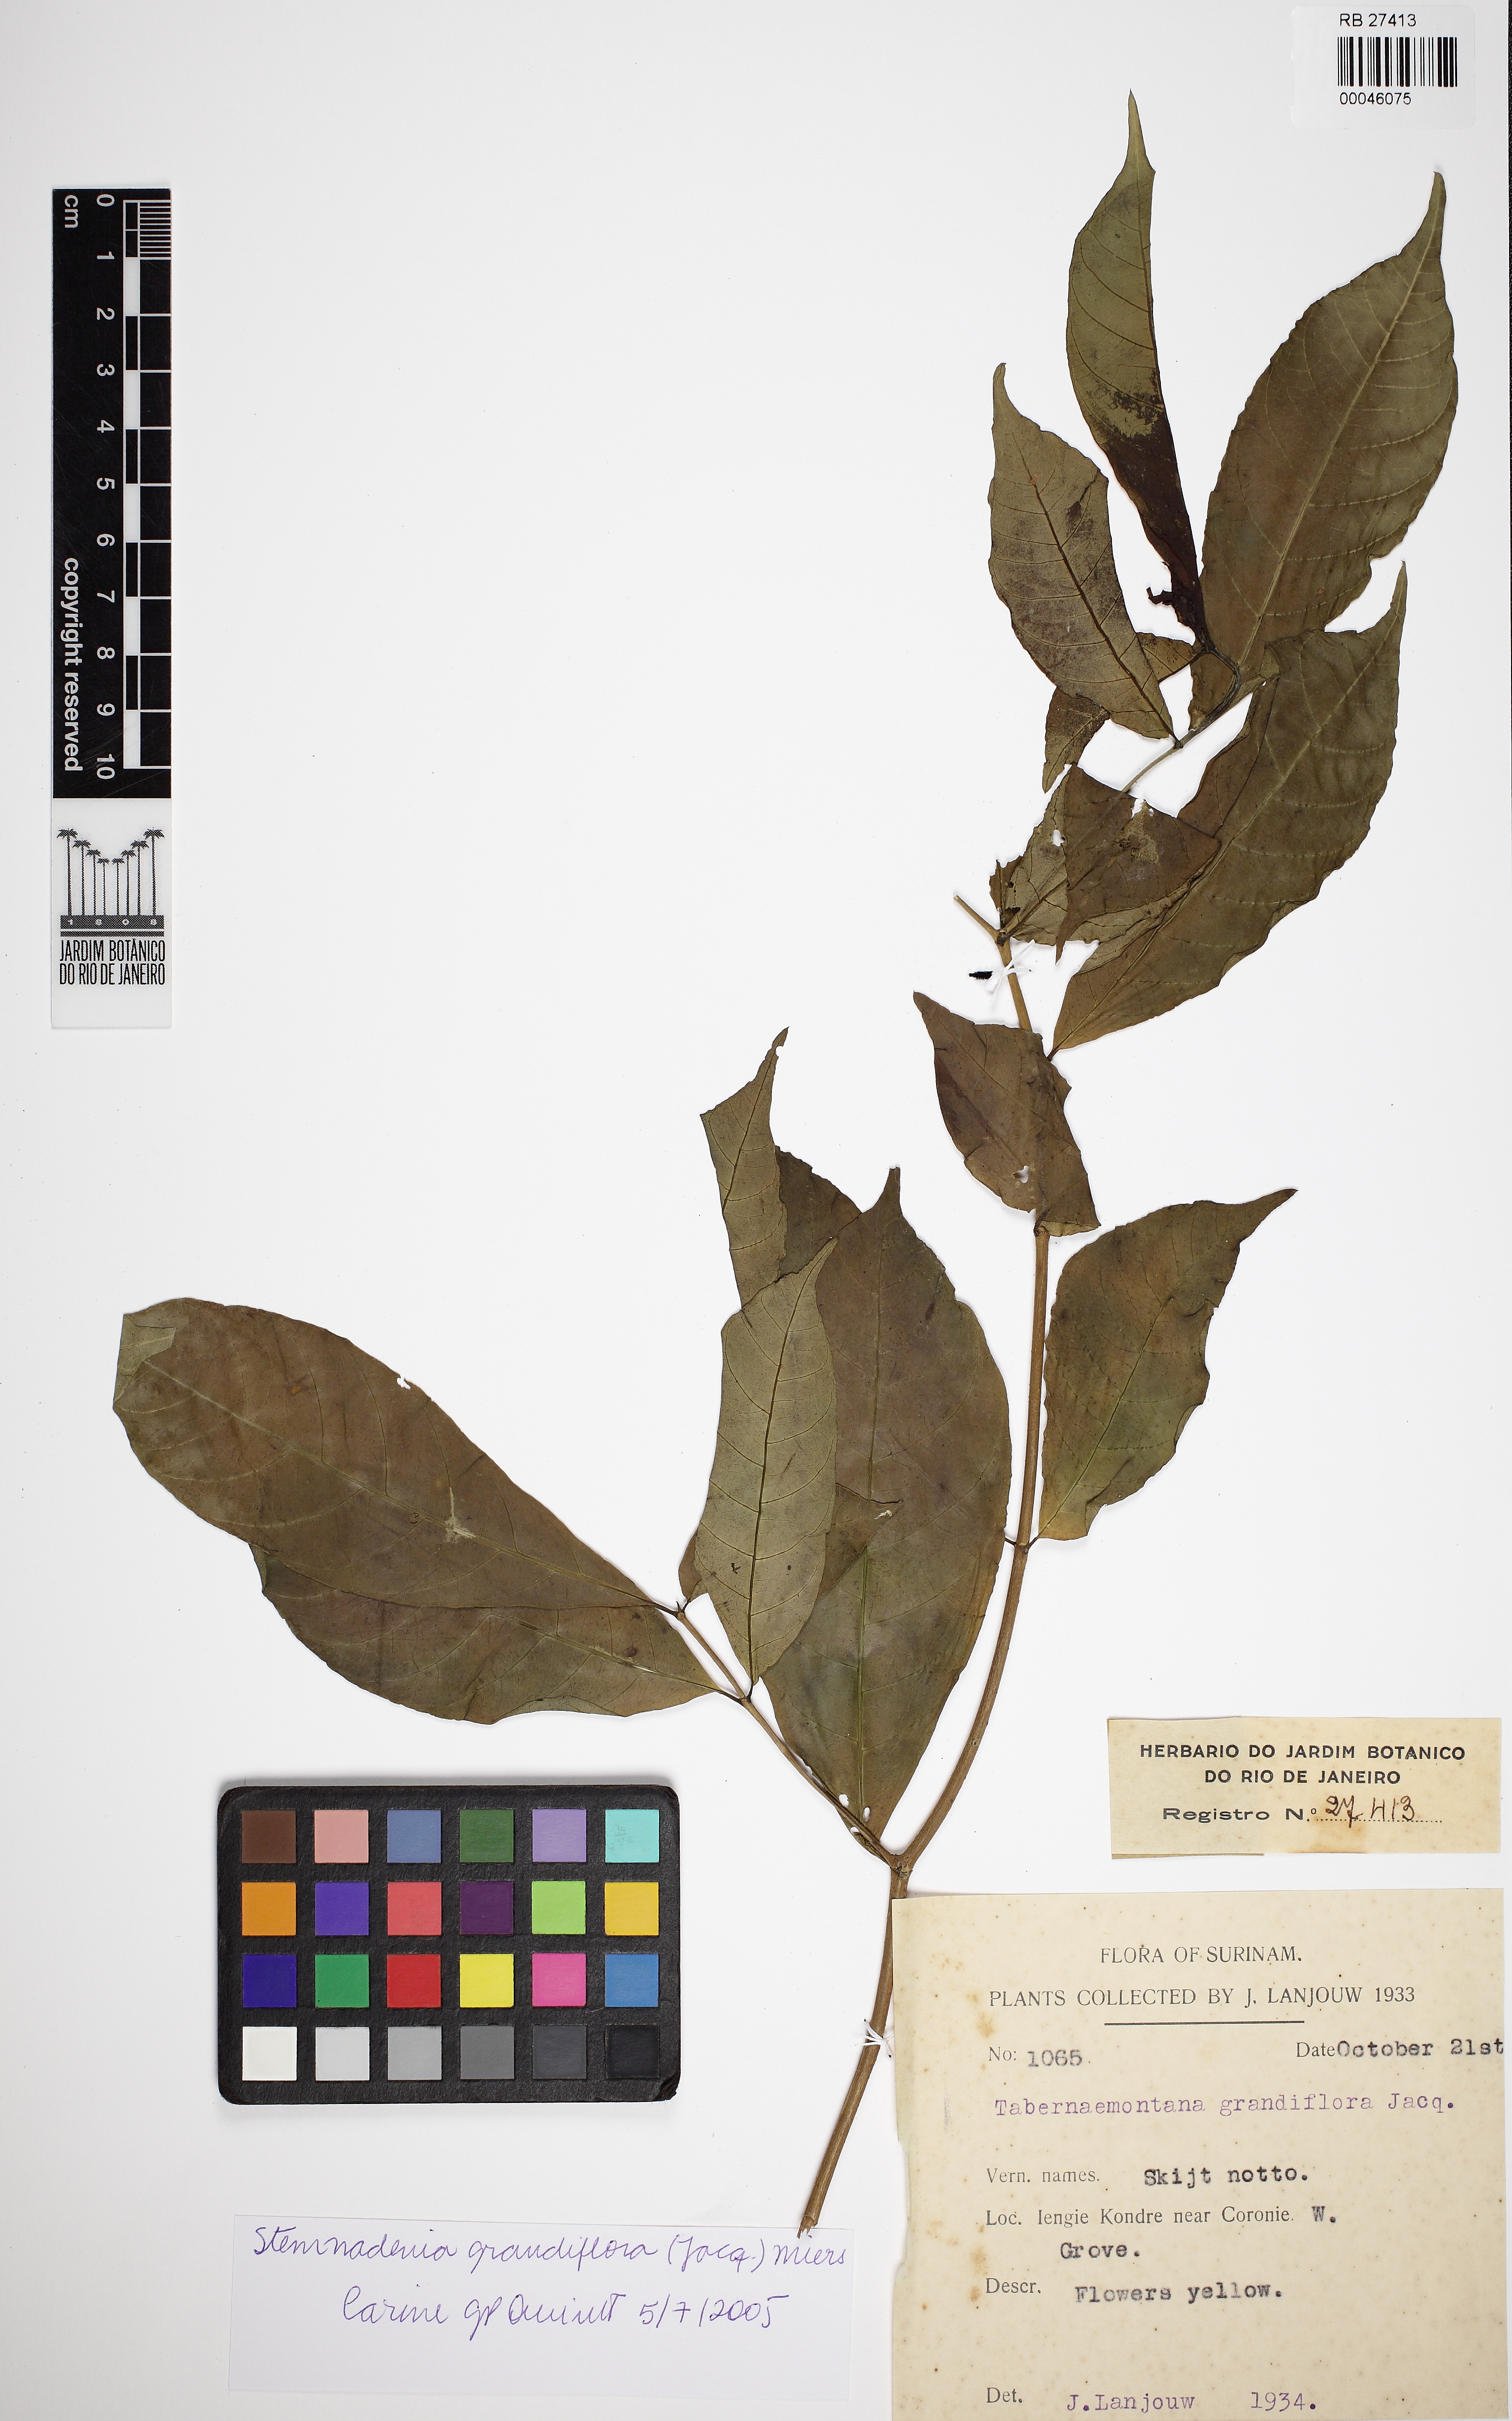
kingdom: Plantae
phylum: Tracheophyta
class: Magnoliopsida
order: Gentianales
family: Apocynaceae
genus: Tabernaemontana
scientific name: Tabernaemontana grandiflora
